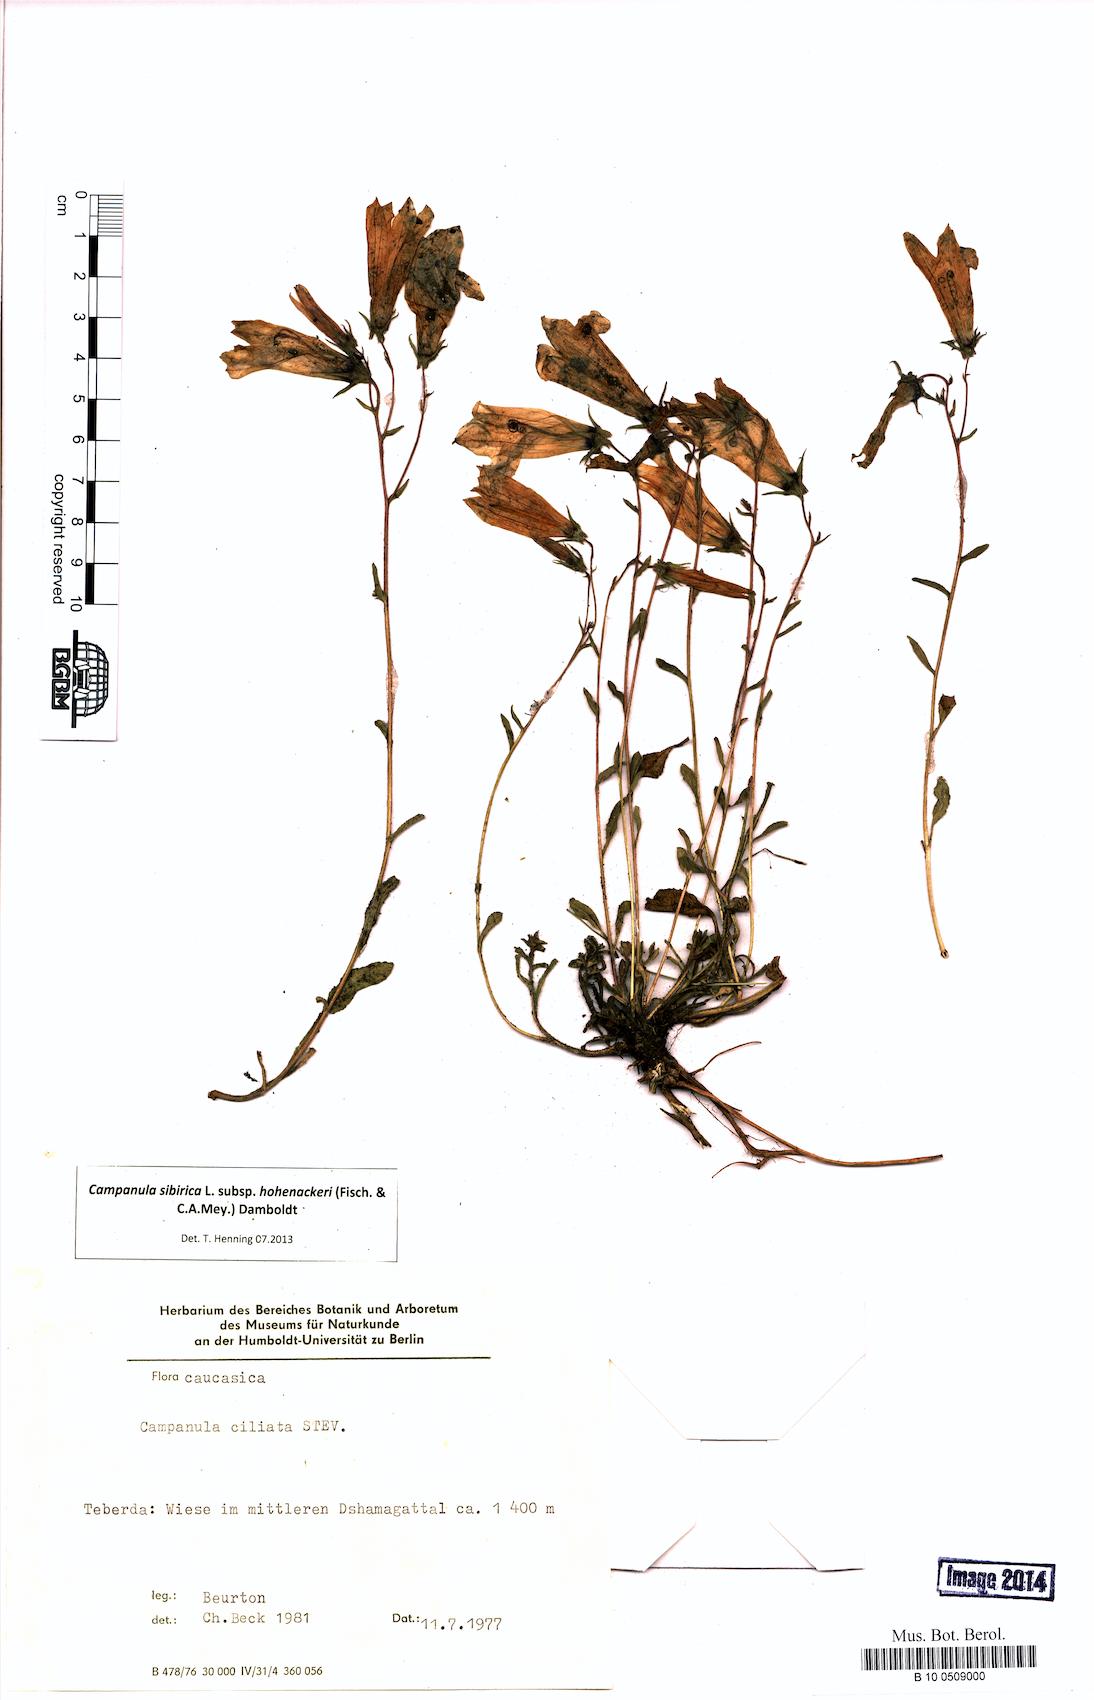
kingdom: Plantae
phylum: Tracheophyta
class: Magnoliopsida
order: Asterales
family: Campanulaceae
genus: Campanula
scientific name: Campanula sibirica
